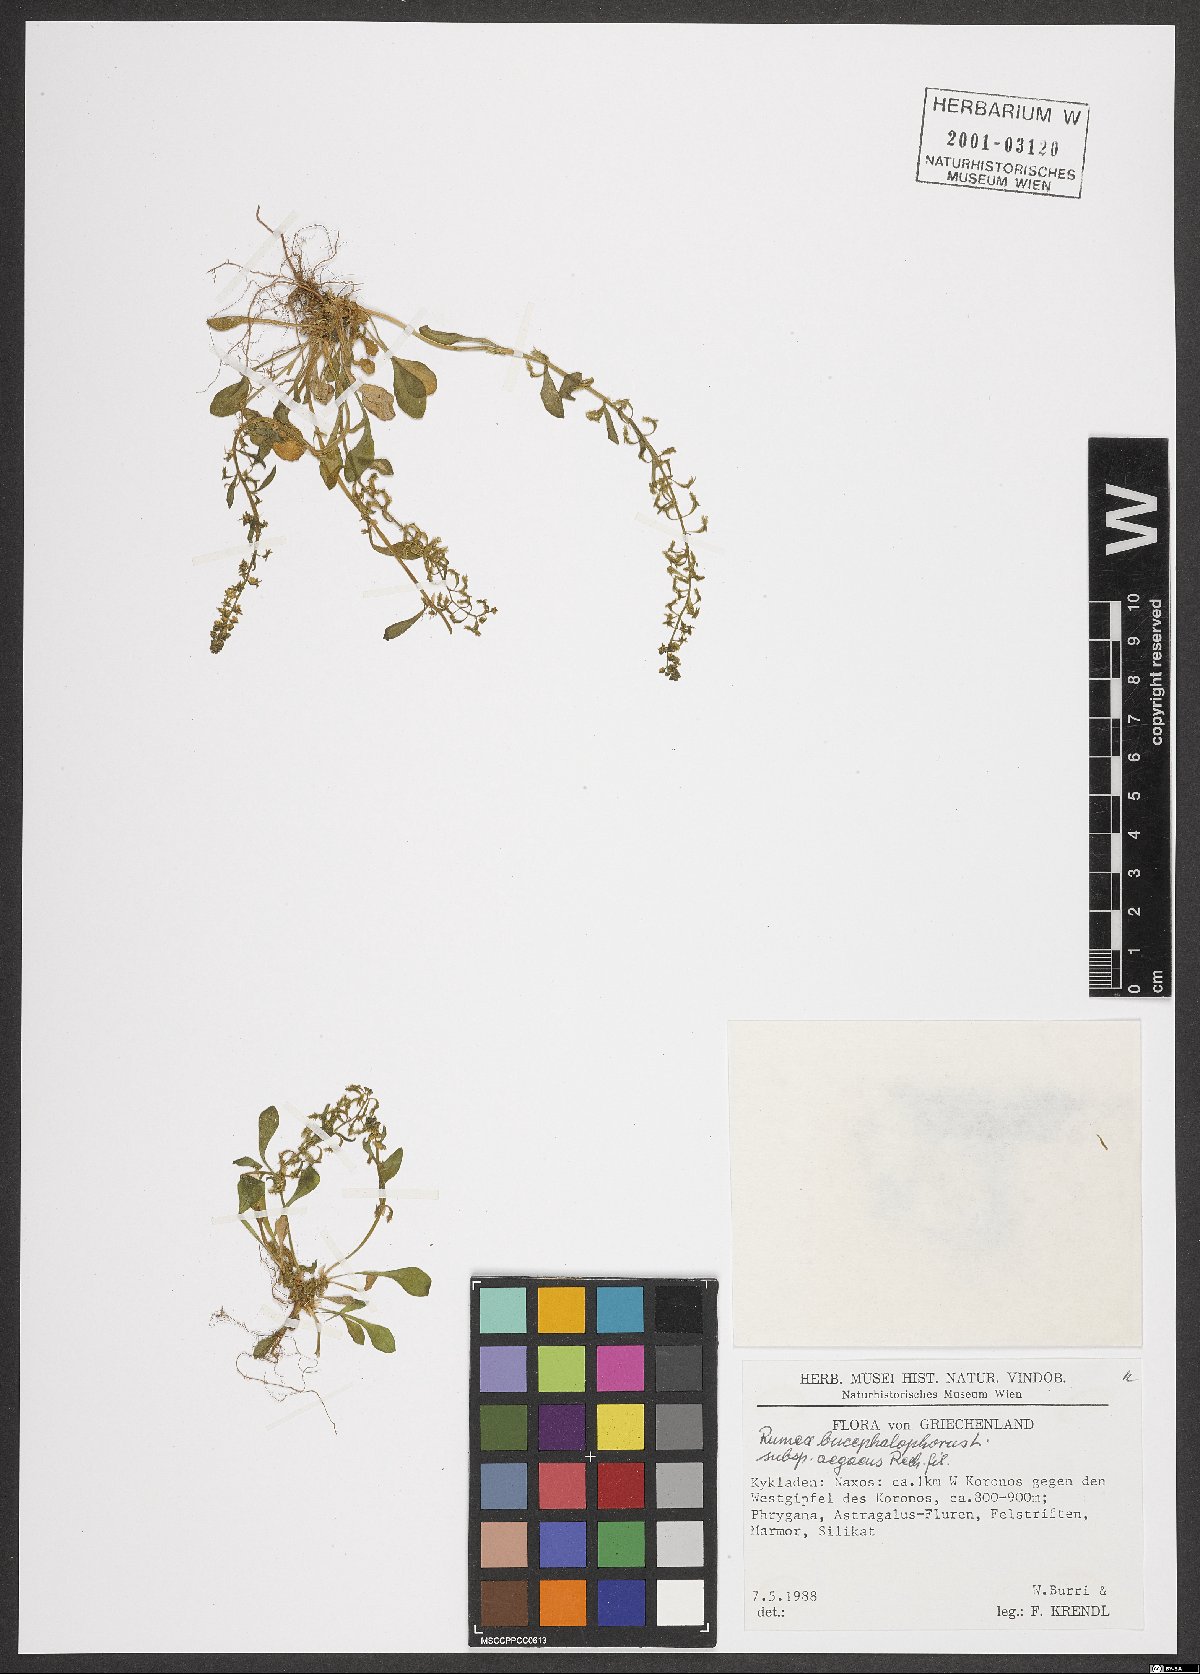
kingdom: Plantae
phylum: Tracheophyta
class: Magnoliopsida
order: Caryophyllales
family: Polygonaceae
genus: Rumex
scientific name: Rumex bucephalophorus
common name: Red dock
